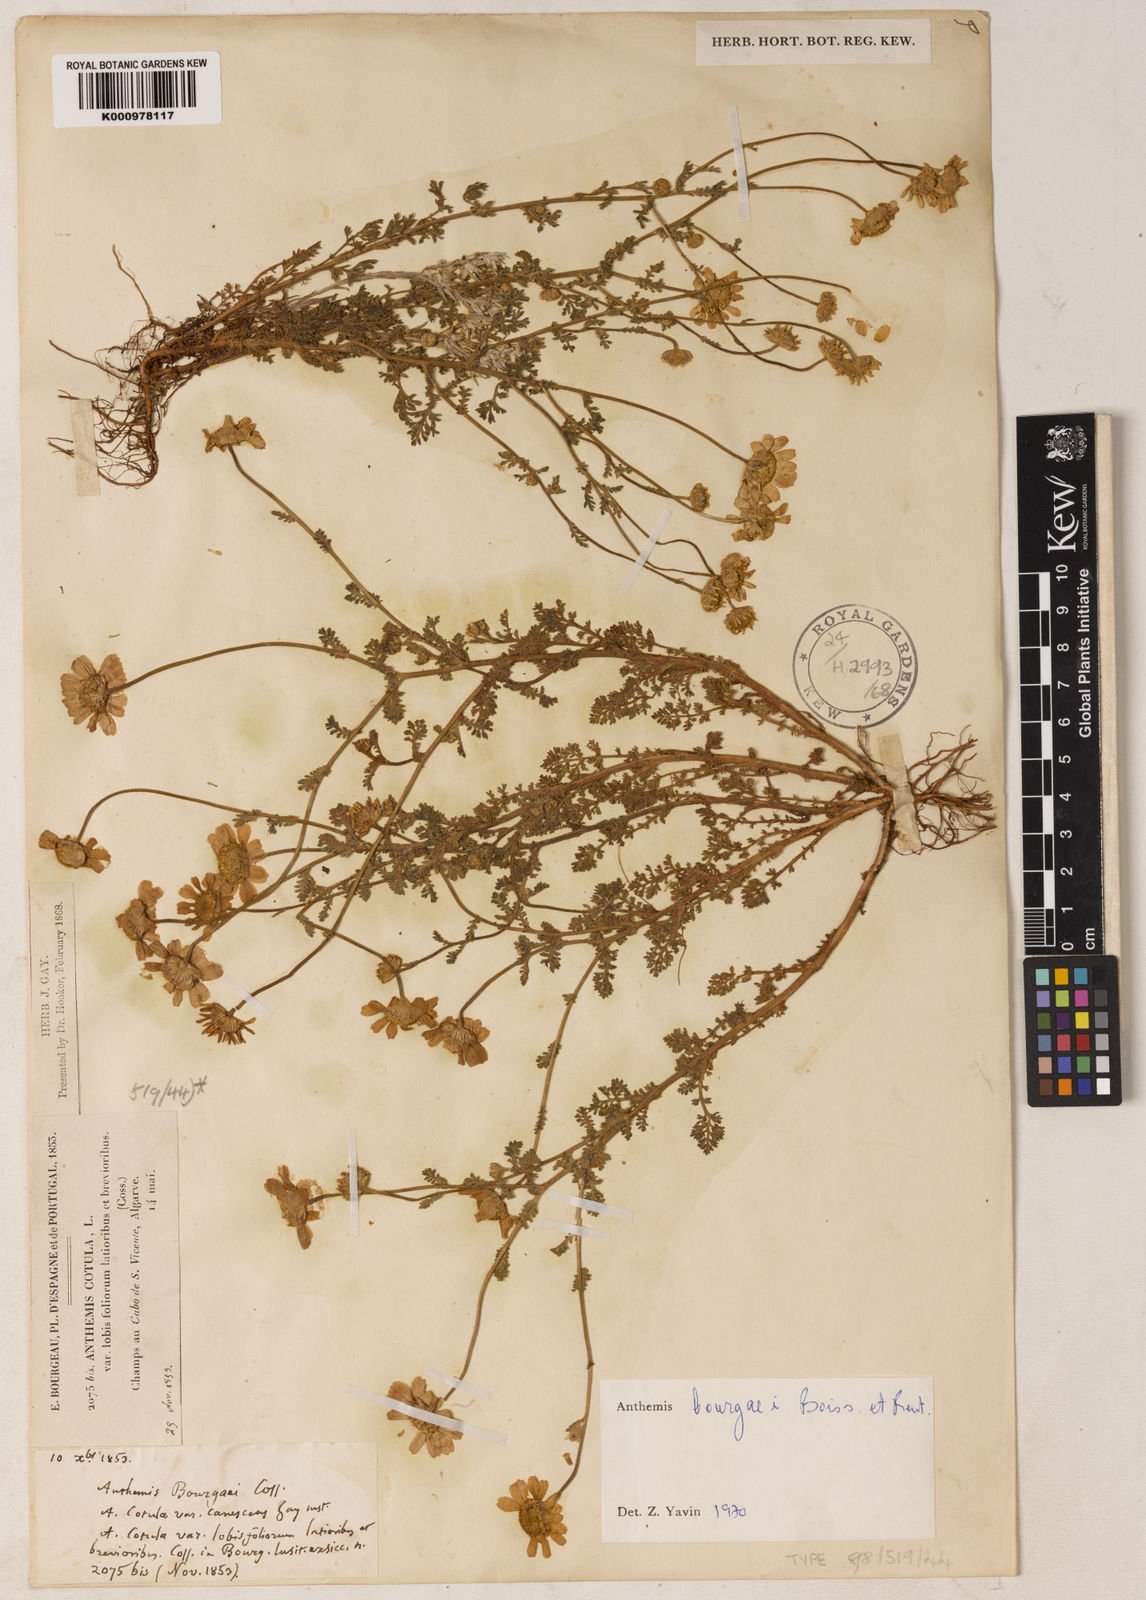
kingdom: Plantae
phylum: Tracheophyta
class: Magnoliopsida
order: Asterales
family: Asteraceae
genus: Anthemis
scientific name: Anthemis
